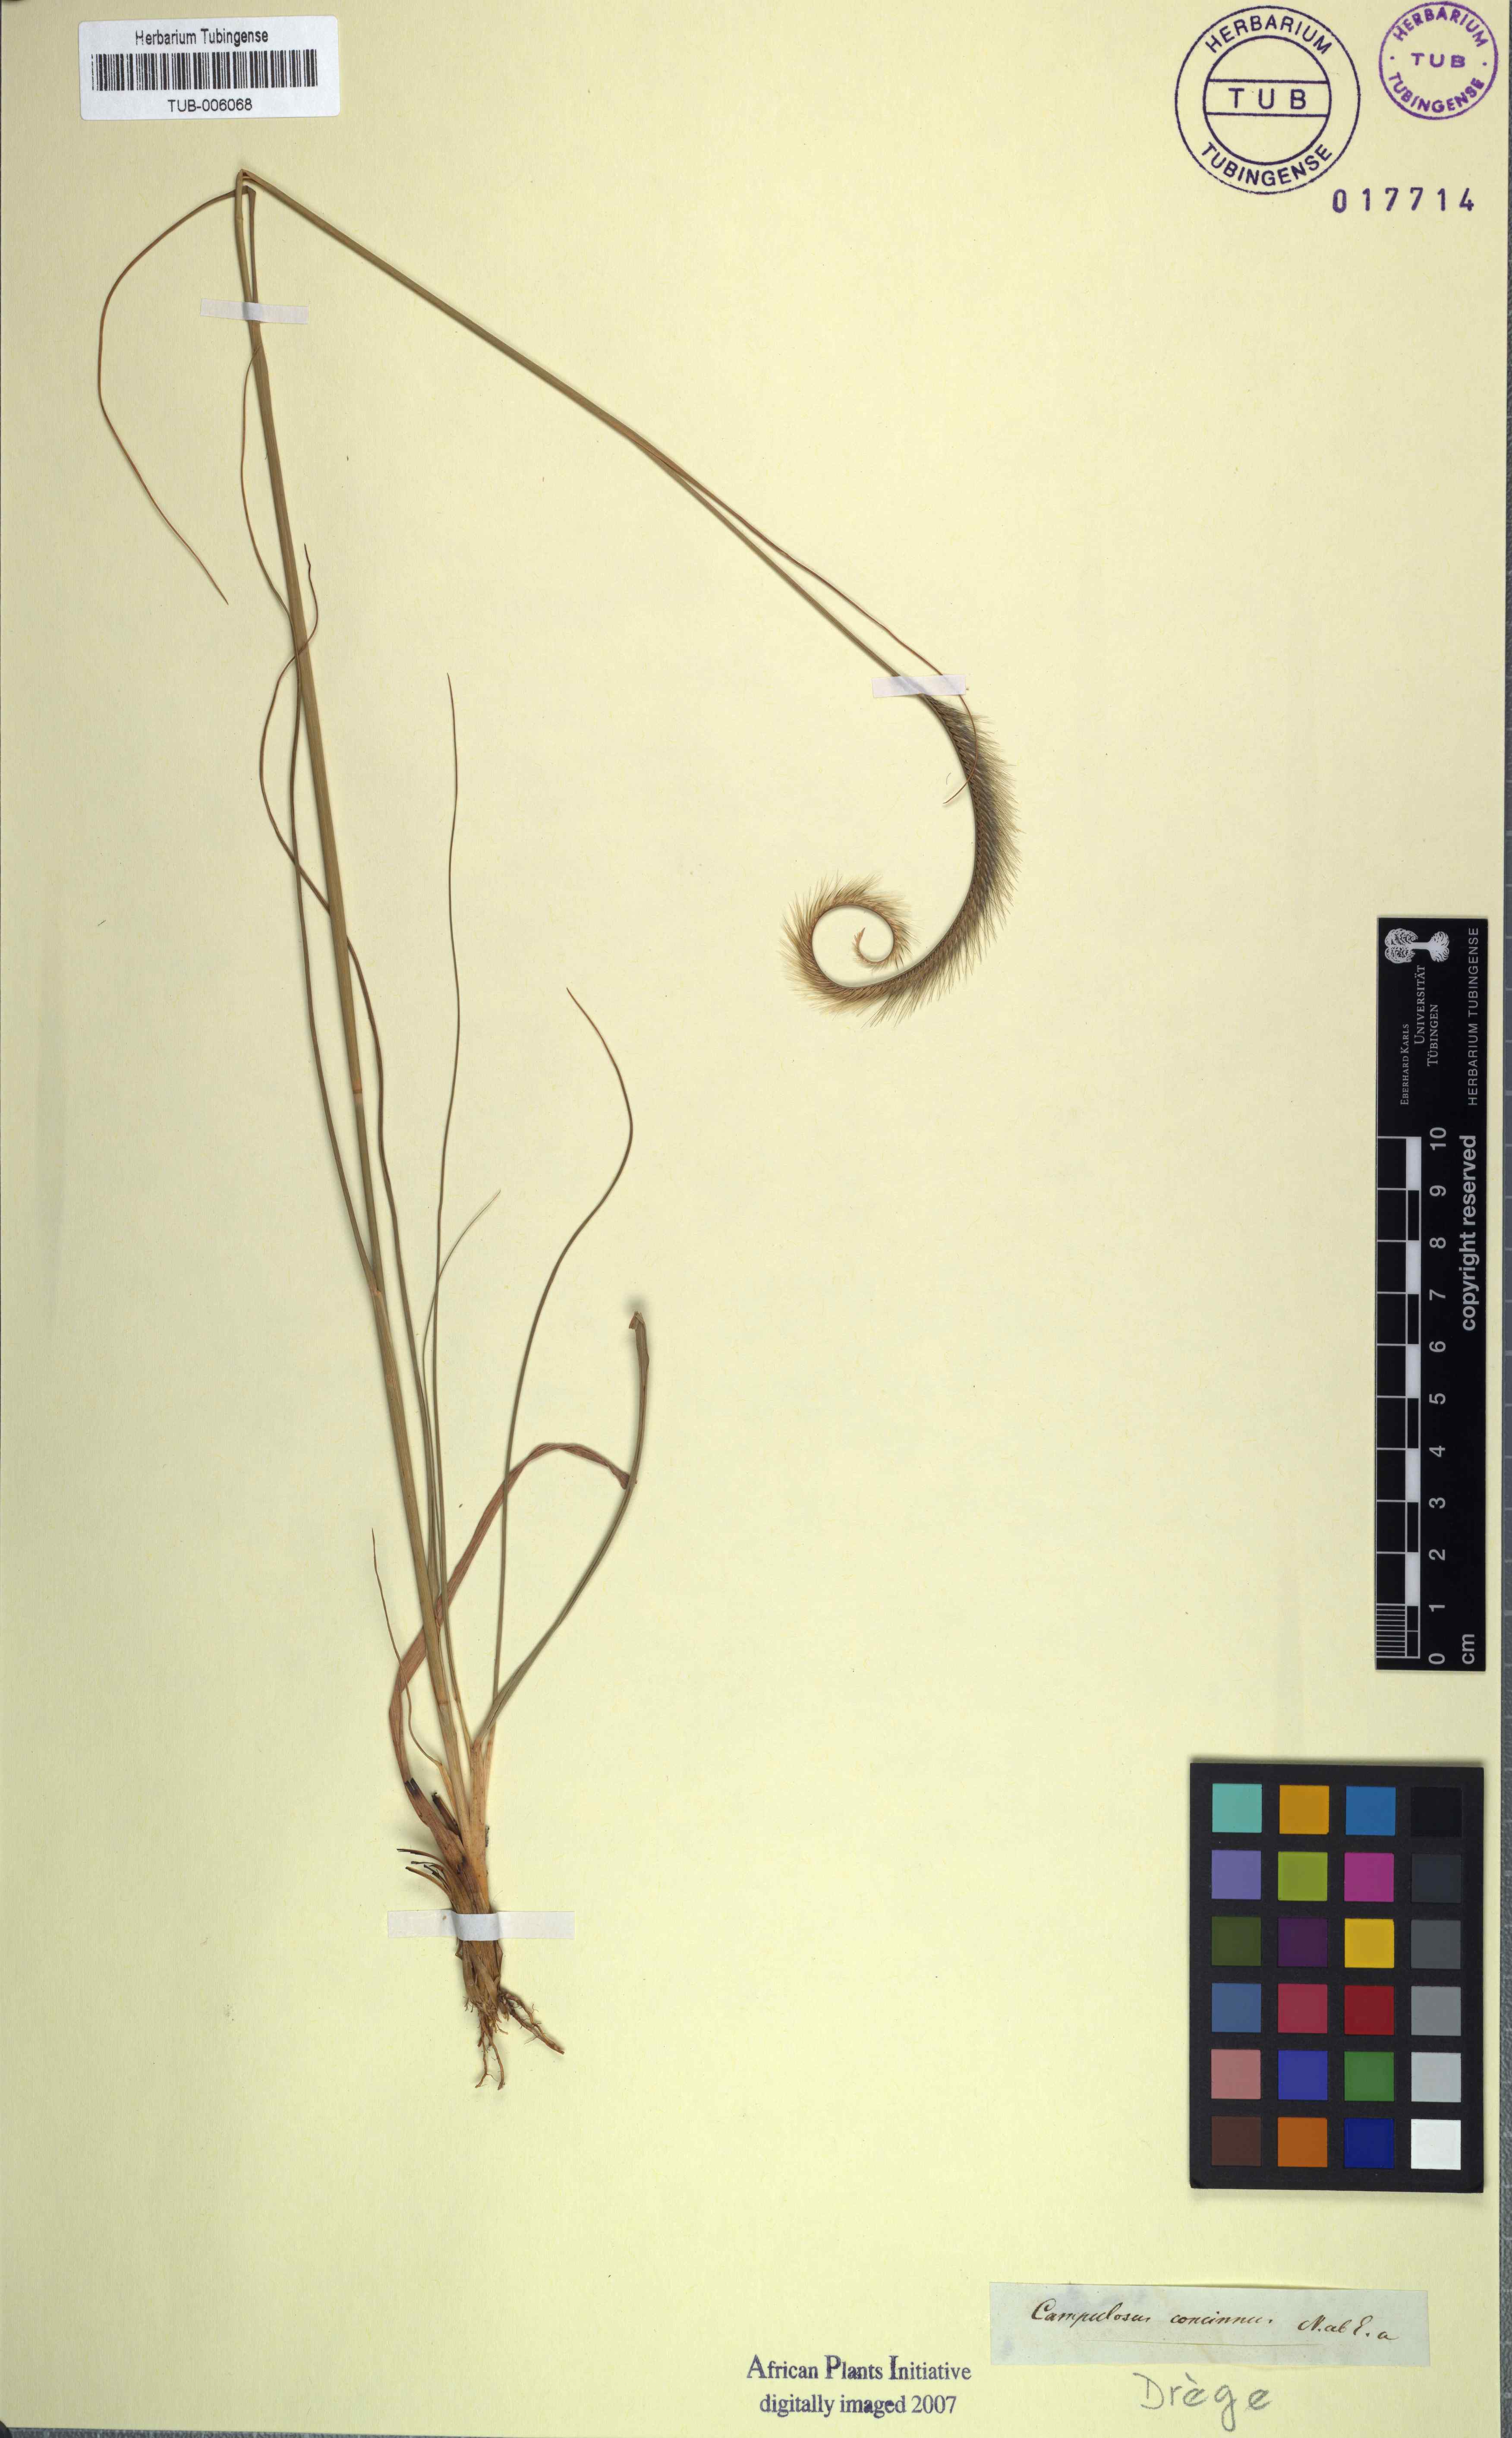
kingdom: Plantae
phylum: Tracheophyta
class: Liliopsida
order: Poales
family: Poaceae
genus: Ctenium
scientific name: Ctenium concinnum
